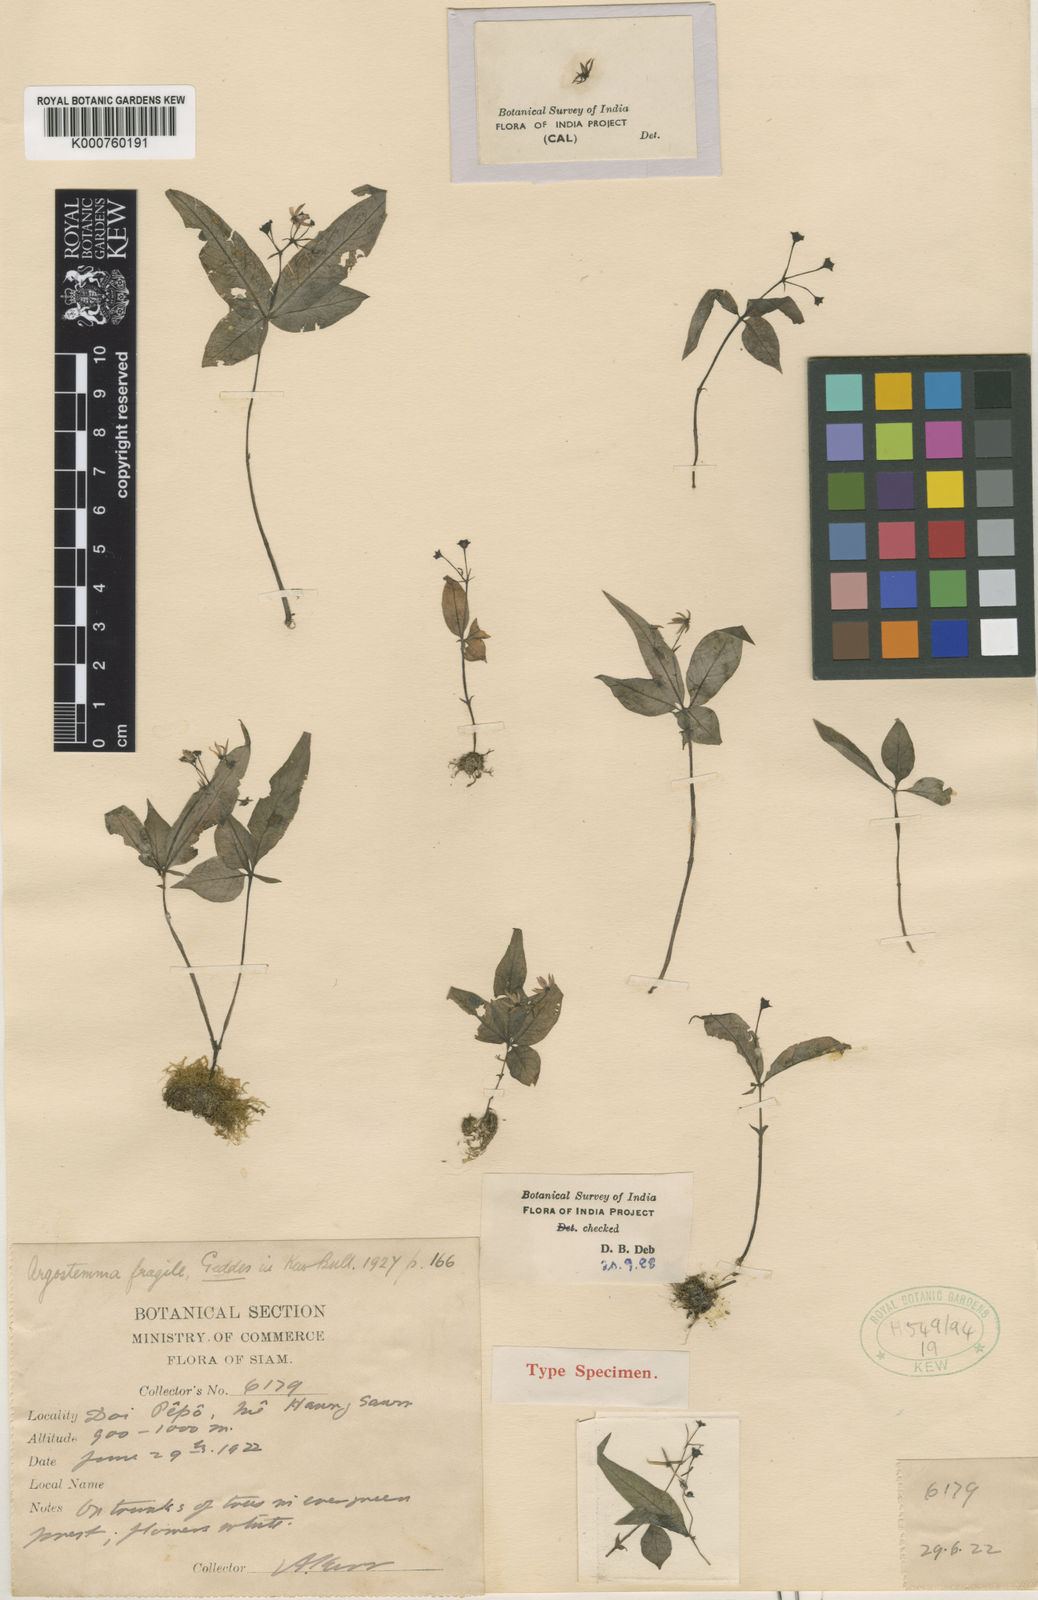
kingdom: Plantae
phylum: Tracheophyta
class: Magnoliopsida
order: Gentianales
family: Rubiaceae
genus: Argostemma
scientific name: Argostemma fragile
